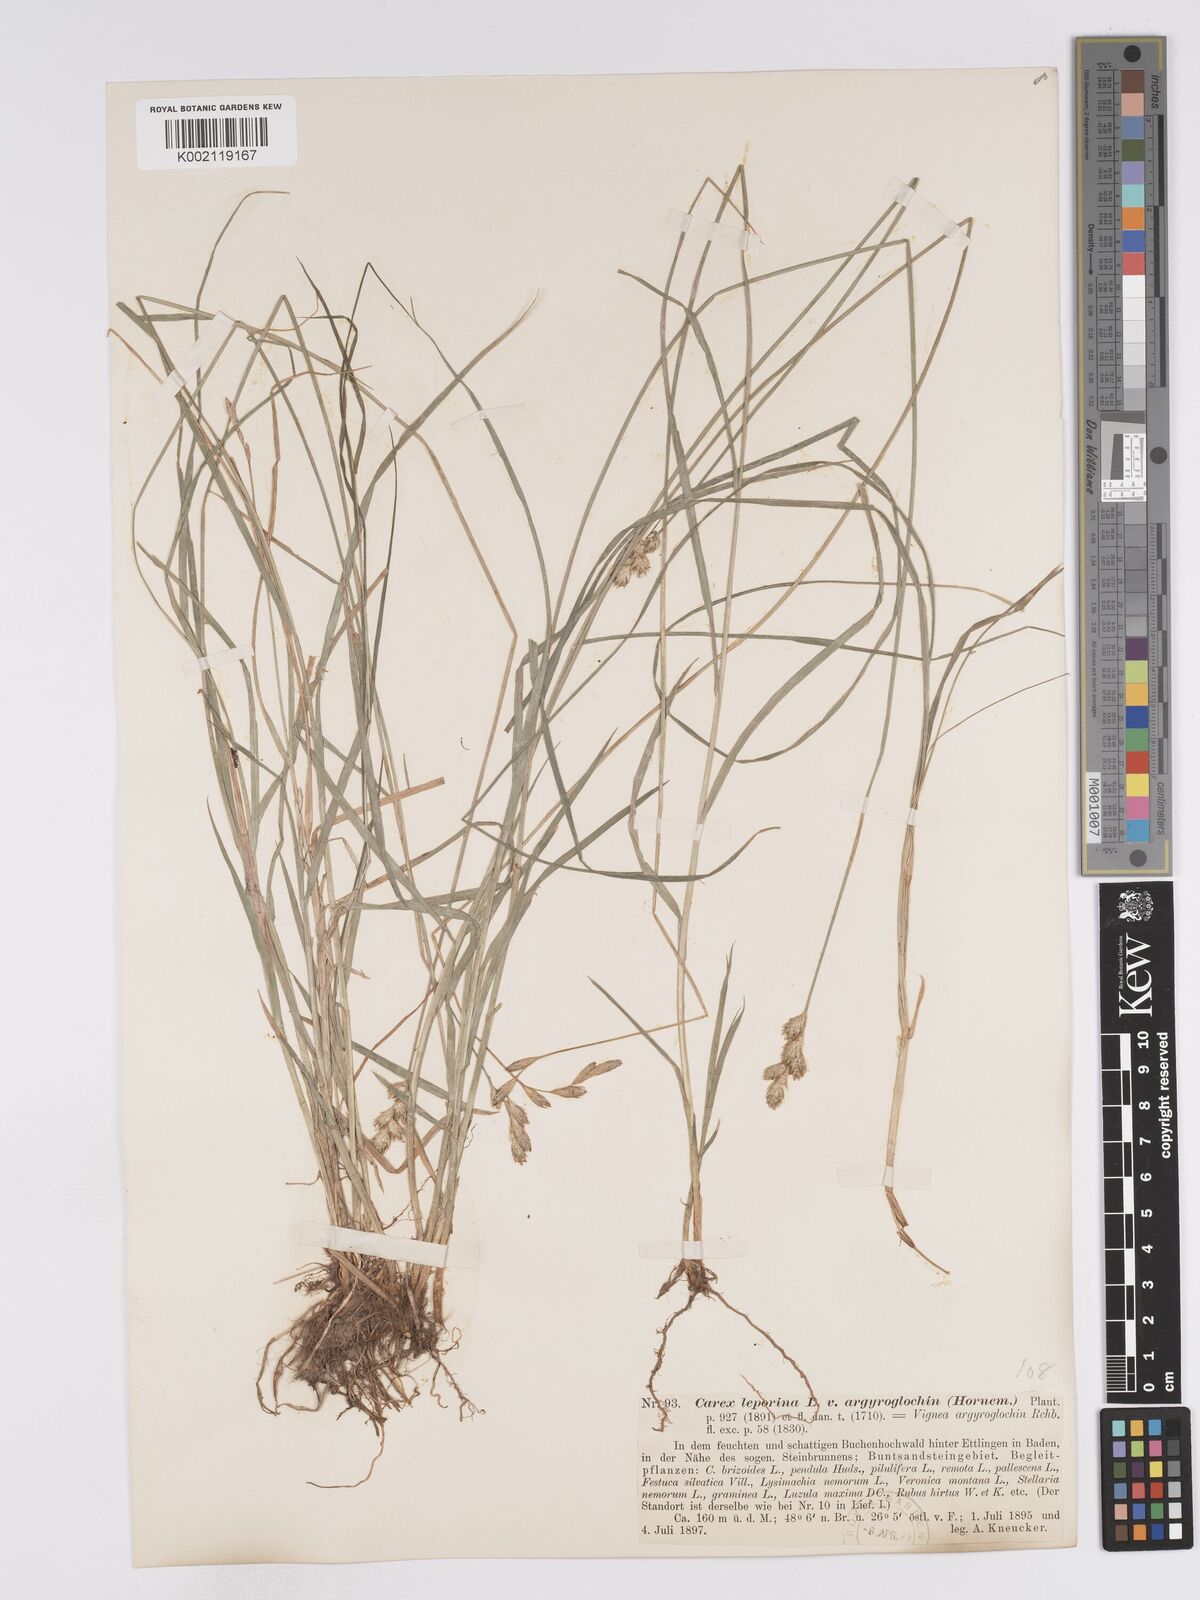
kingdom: Plantae
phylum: Tracheophyta
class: Liliopsida
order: Poales
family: Cyperaceae
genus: Carex
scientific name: Carex leporina
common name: Oval sedge
